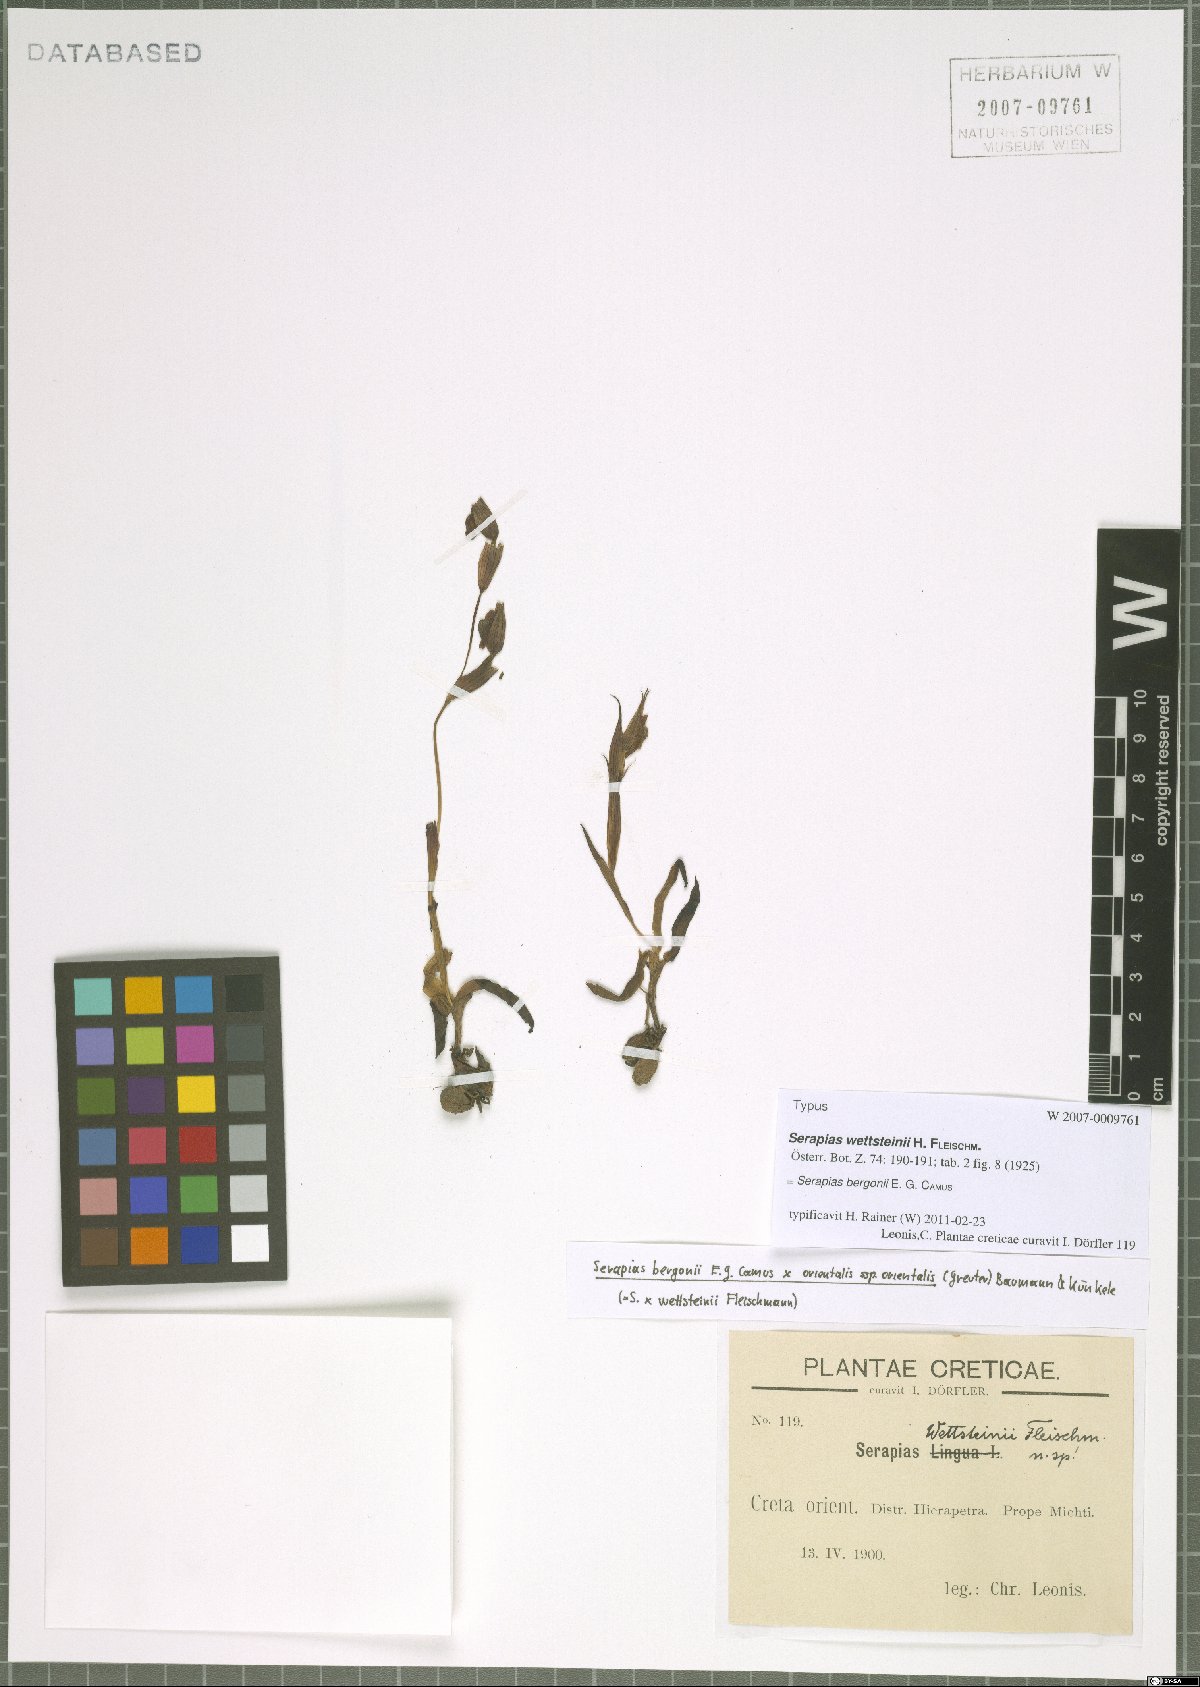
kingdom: Plantae
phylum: Tracheophyta
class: Liliopsida
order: Asparagales
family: Orchidaceae
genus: Serapias
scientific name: Serapias bergonii
